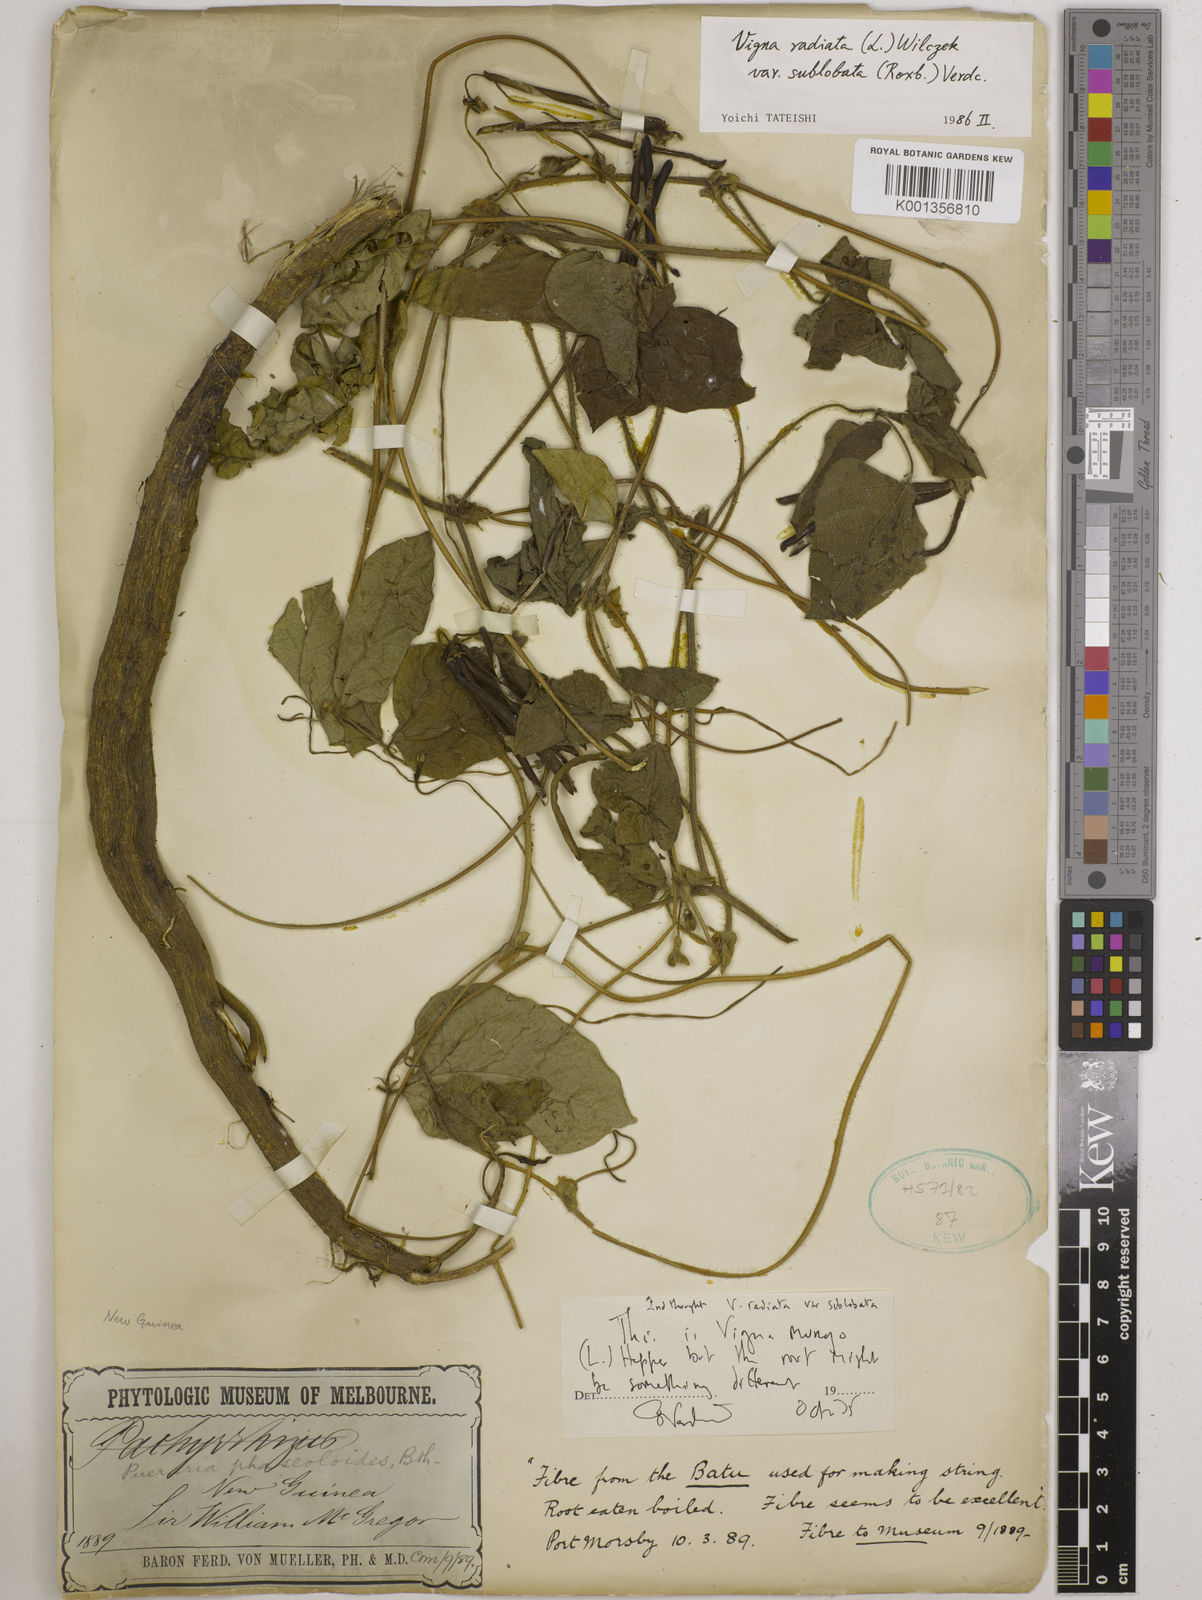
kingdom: Plantae
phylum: Tracheophyta
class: Magnoliopsida
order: Fabales
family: Fabaceae
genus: Vigna
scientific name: Vigna radiata
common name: Mung-bean
